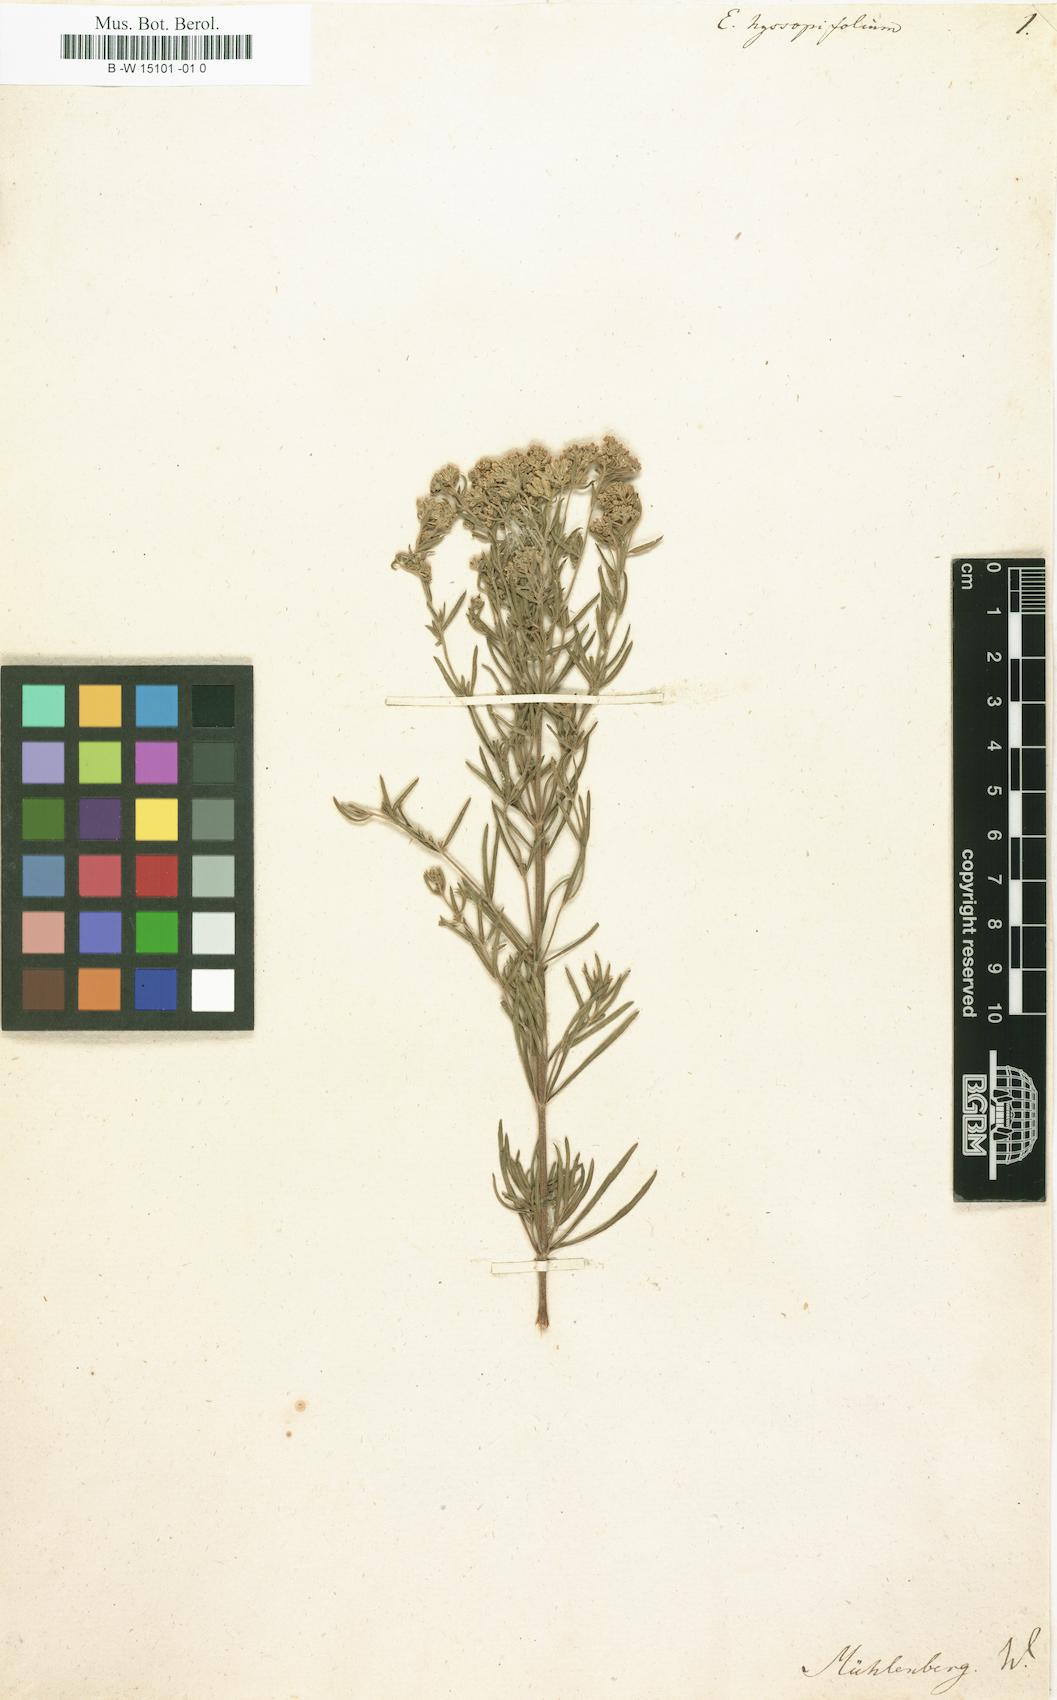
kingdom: Plantae
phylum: Tracheophyta
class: Magnoliopsida
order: Asterales
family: Asteraceae
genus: Eupatorium
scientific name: Eupatorium hyssopifolium
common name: Hyssop-leaf thoroughwort
